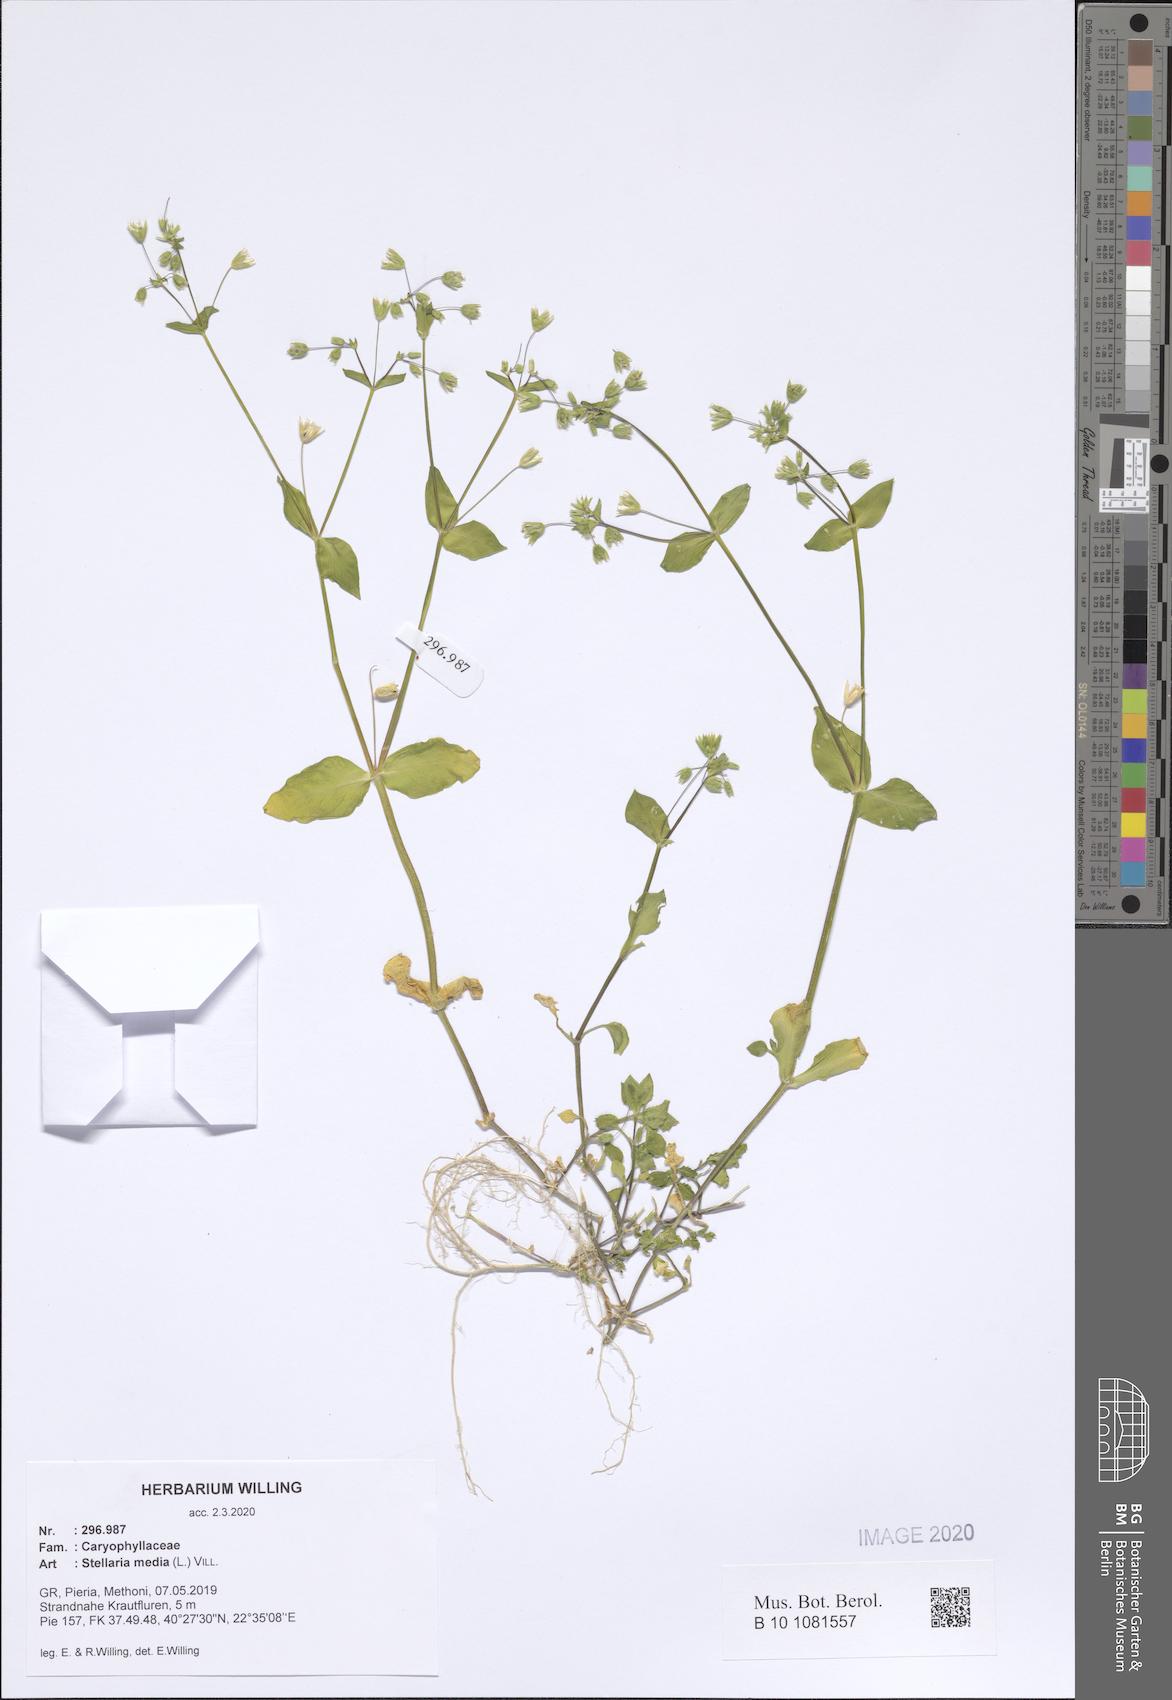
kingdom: Plantae
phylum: Tracheophyta
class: Magnoliopsida
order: Caryophyllales
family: Caryophyllaceae
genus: Stellaria
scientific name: Stellaria media
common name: Common chickweed
